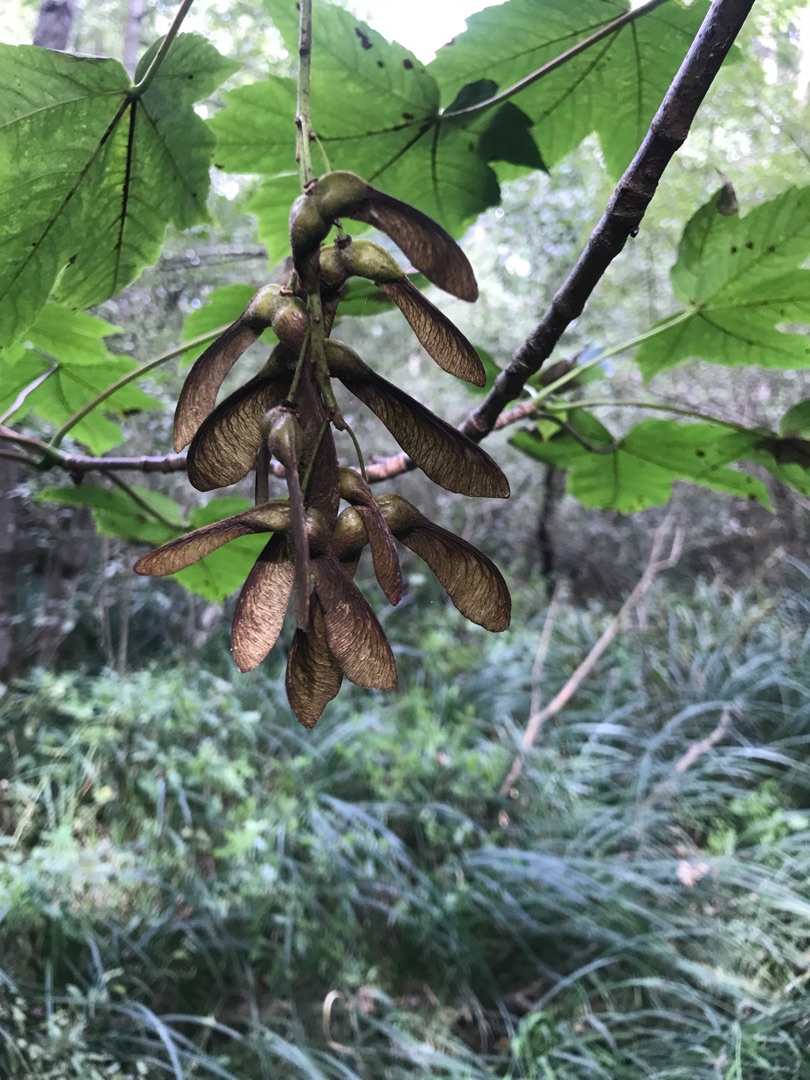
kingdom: Plantae
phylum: Tracheophyta
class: Magnoliopsida
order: Sapindales
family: Sapindaceae
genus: Acer
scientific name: Acer pseudoplatanus
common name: Ahorn
